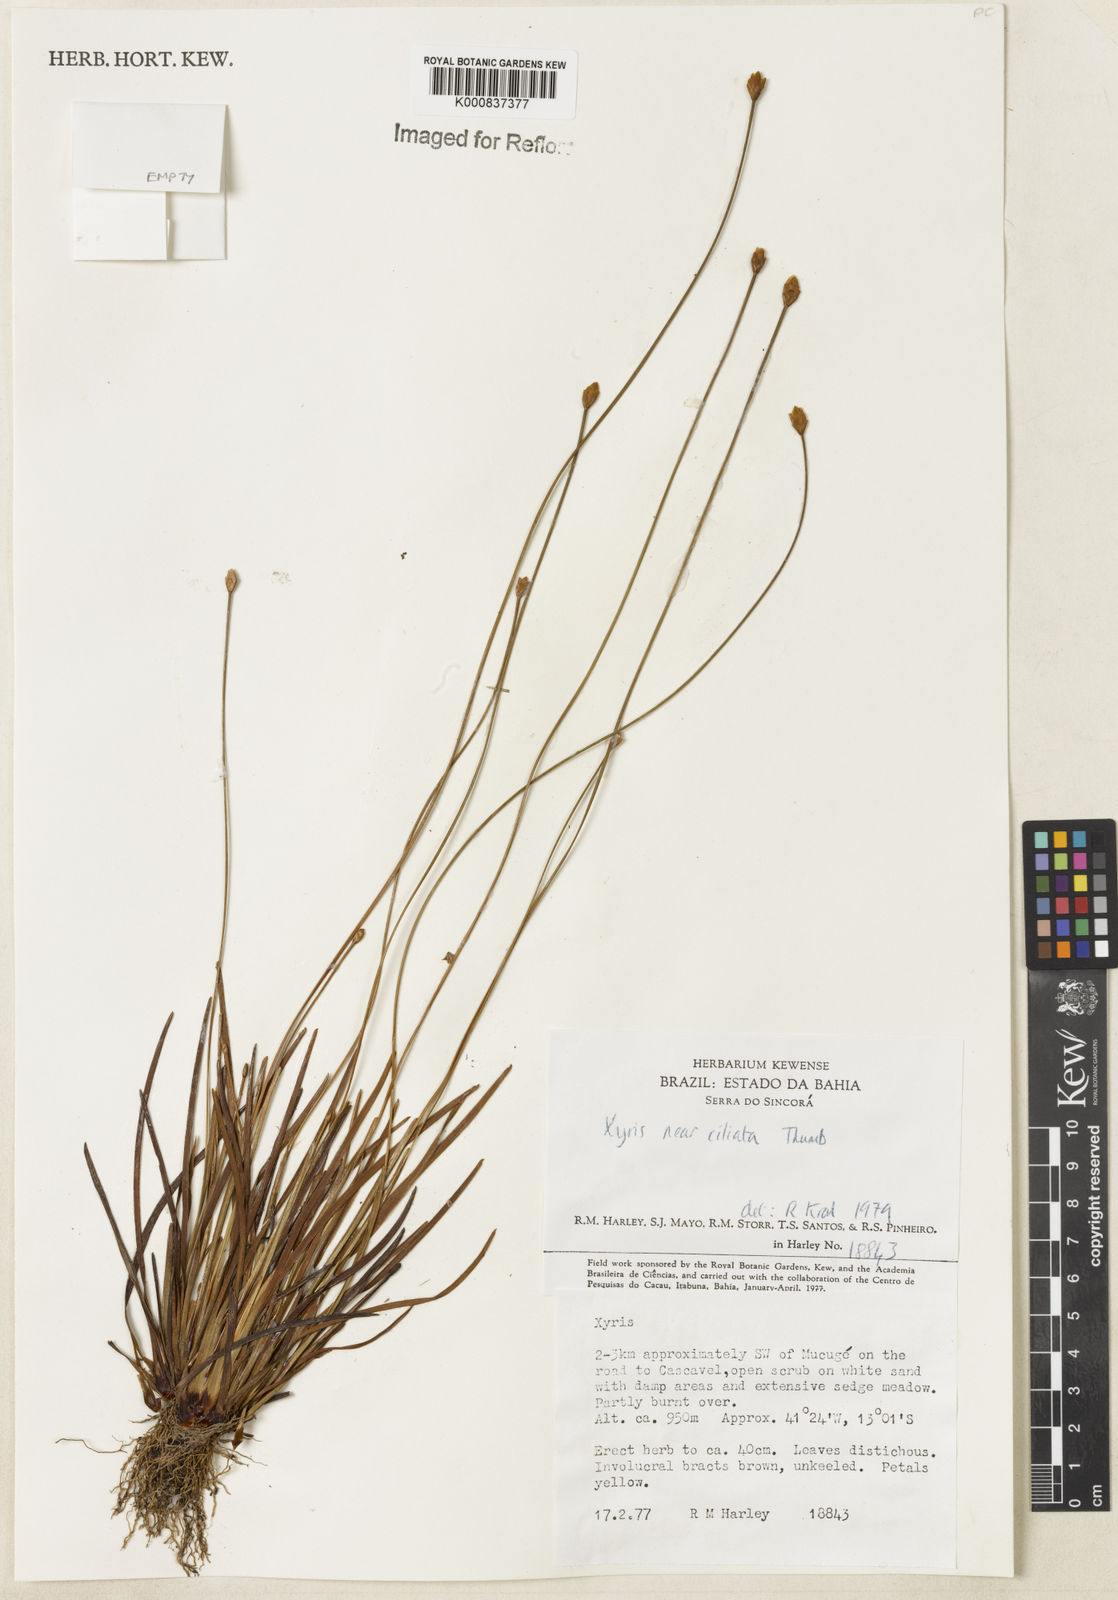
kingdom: Plantae
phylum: Tracheophyta
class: Liliopsida
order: Poales
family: Xyridaceae
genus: Xyris
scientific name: Xyris ciliata
